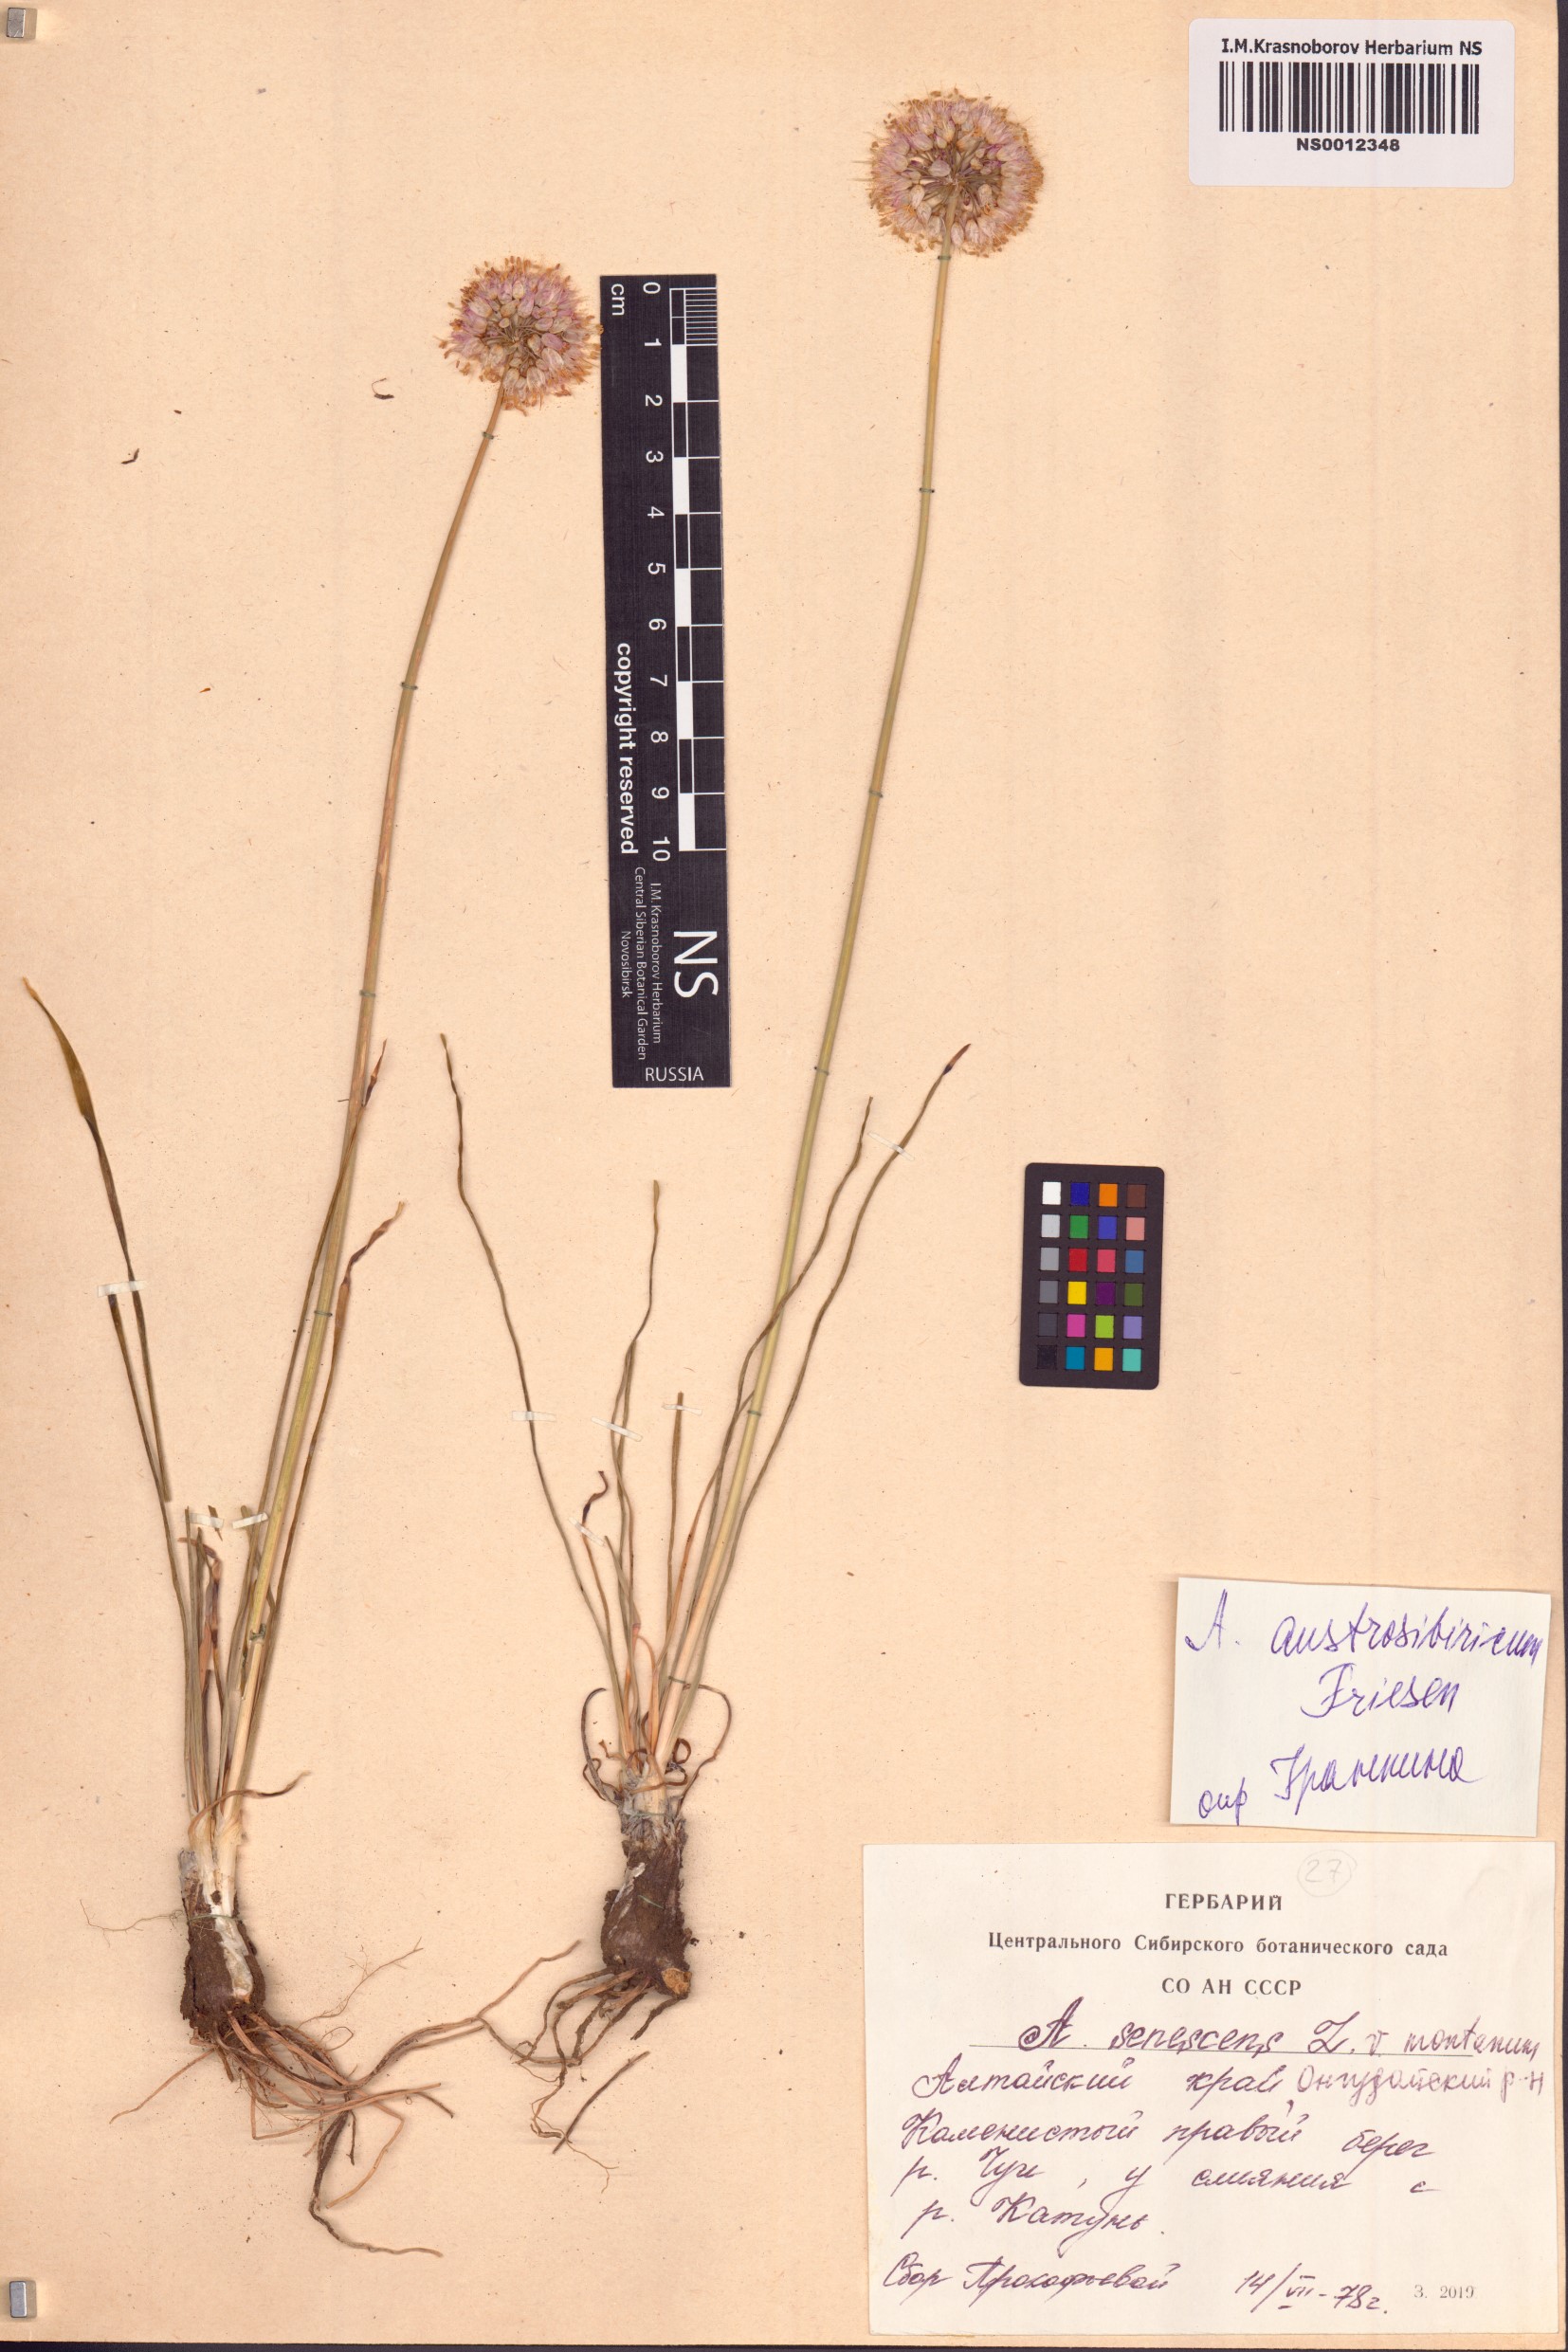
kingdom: Plantae
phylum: Tracheophyta
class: Liliopsida
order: Asparagales
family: Amaryllidaceae
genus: Allium
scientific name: Allium austrosibiricum
